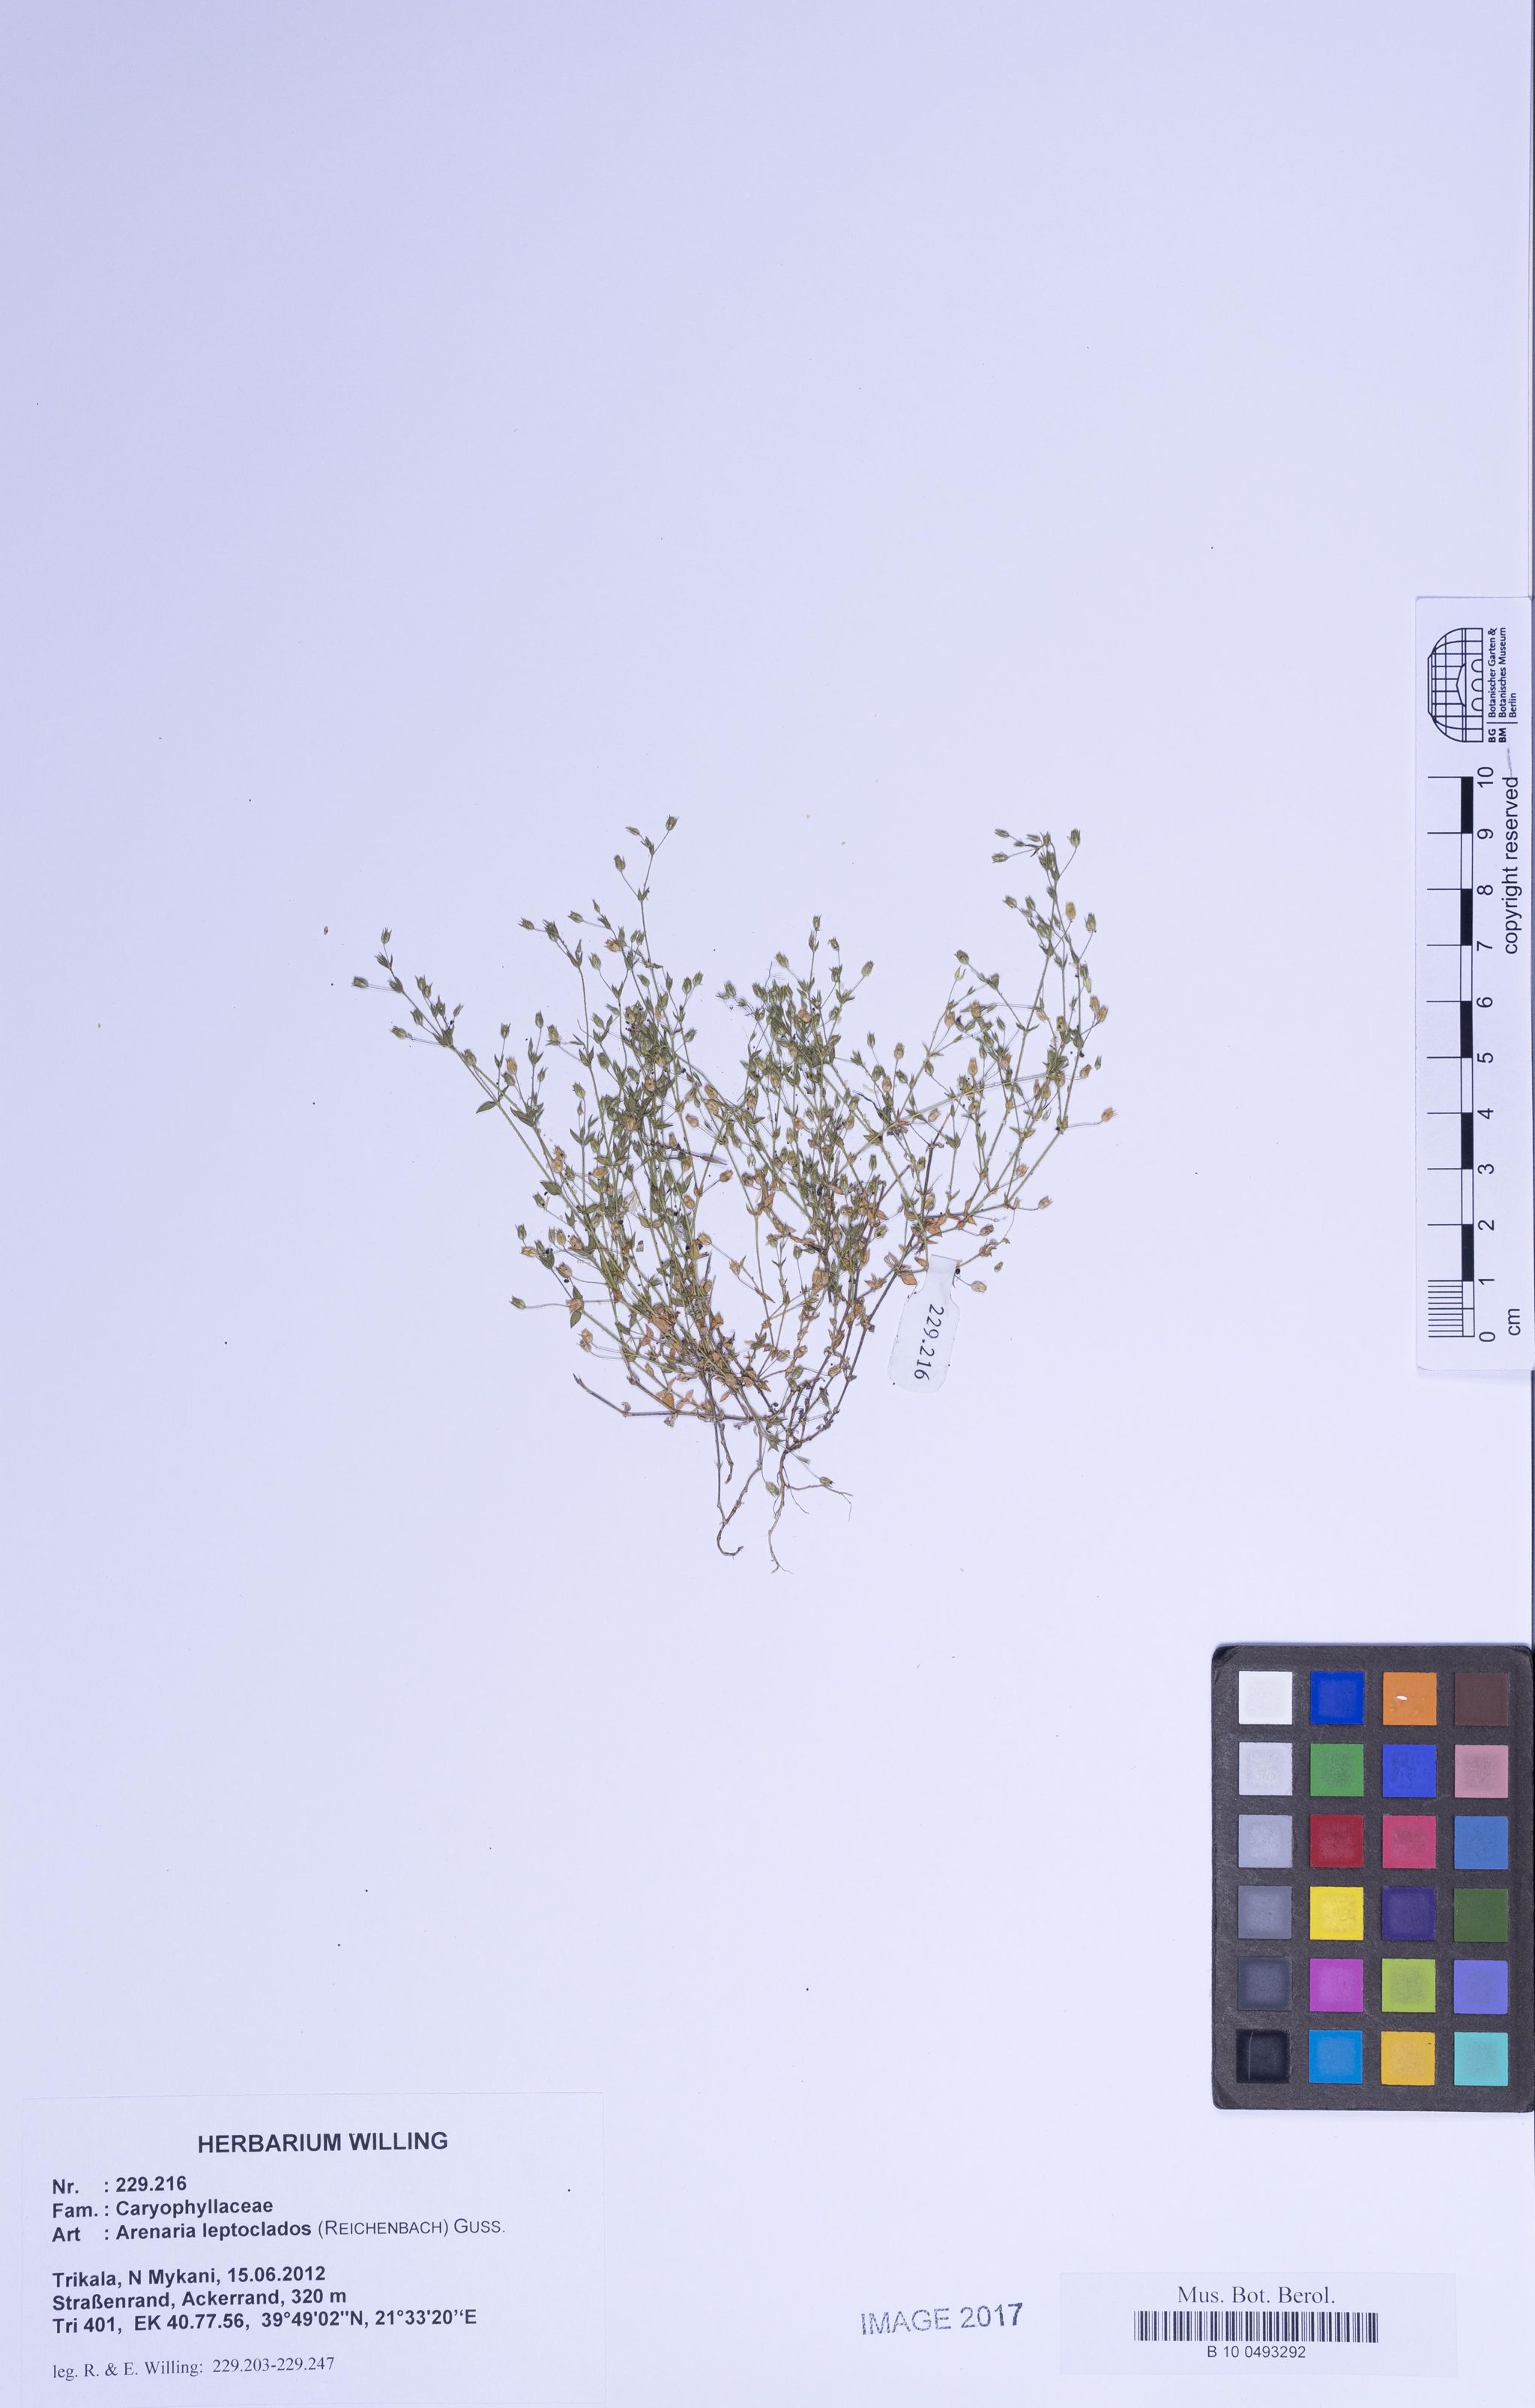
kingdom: Plantae
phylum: Tracheophyta
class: Magnoliopsida
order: Caryophyllales
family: Caryophyllaceae
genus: Arenaria
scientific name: Arenaria leptoclados
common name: Thyme-leaved sandwort
